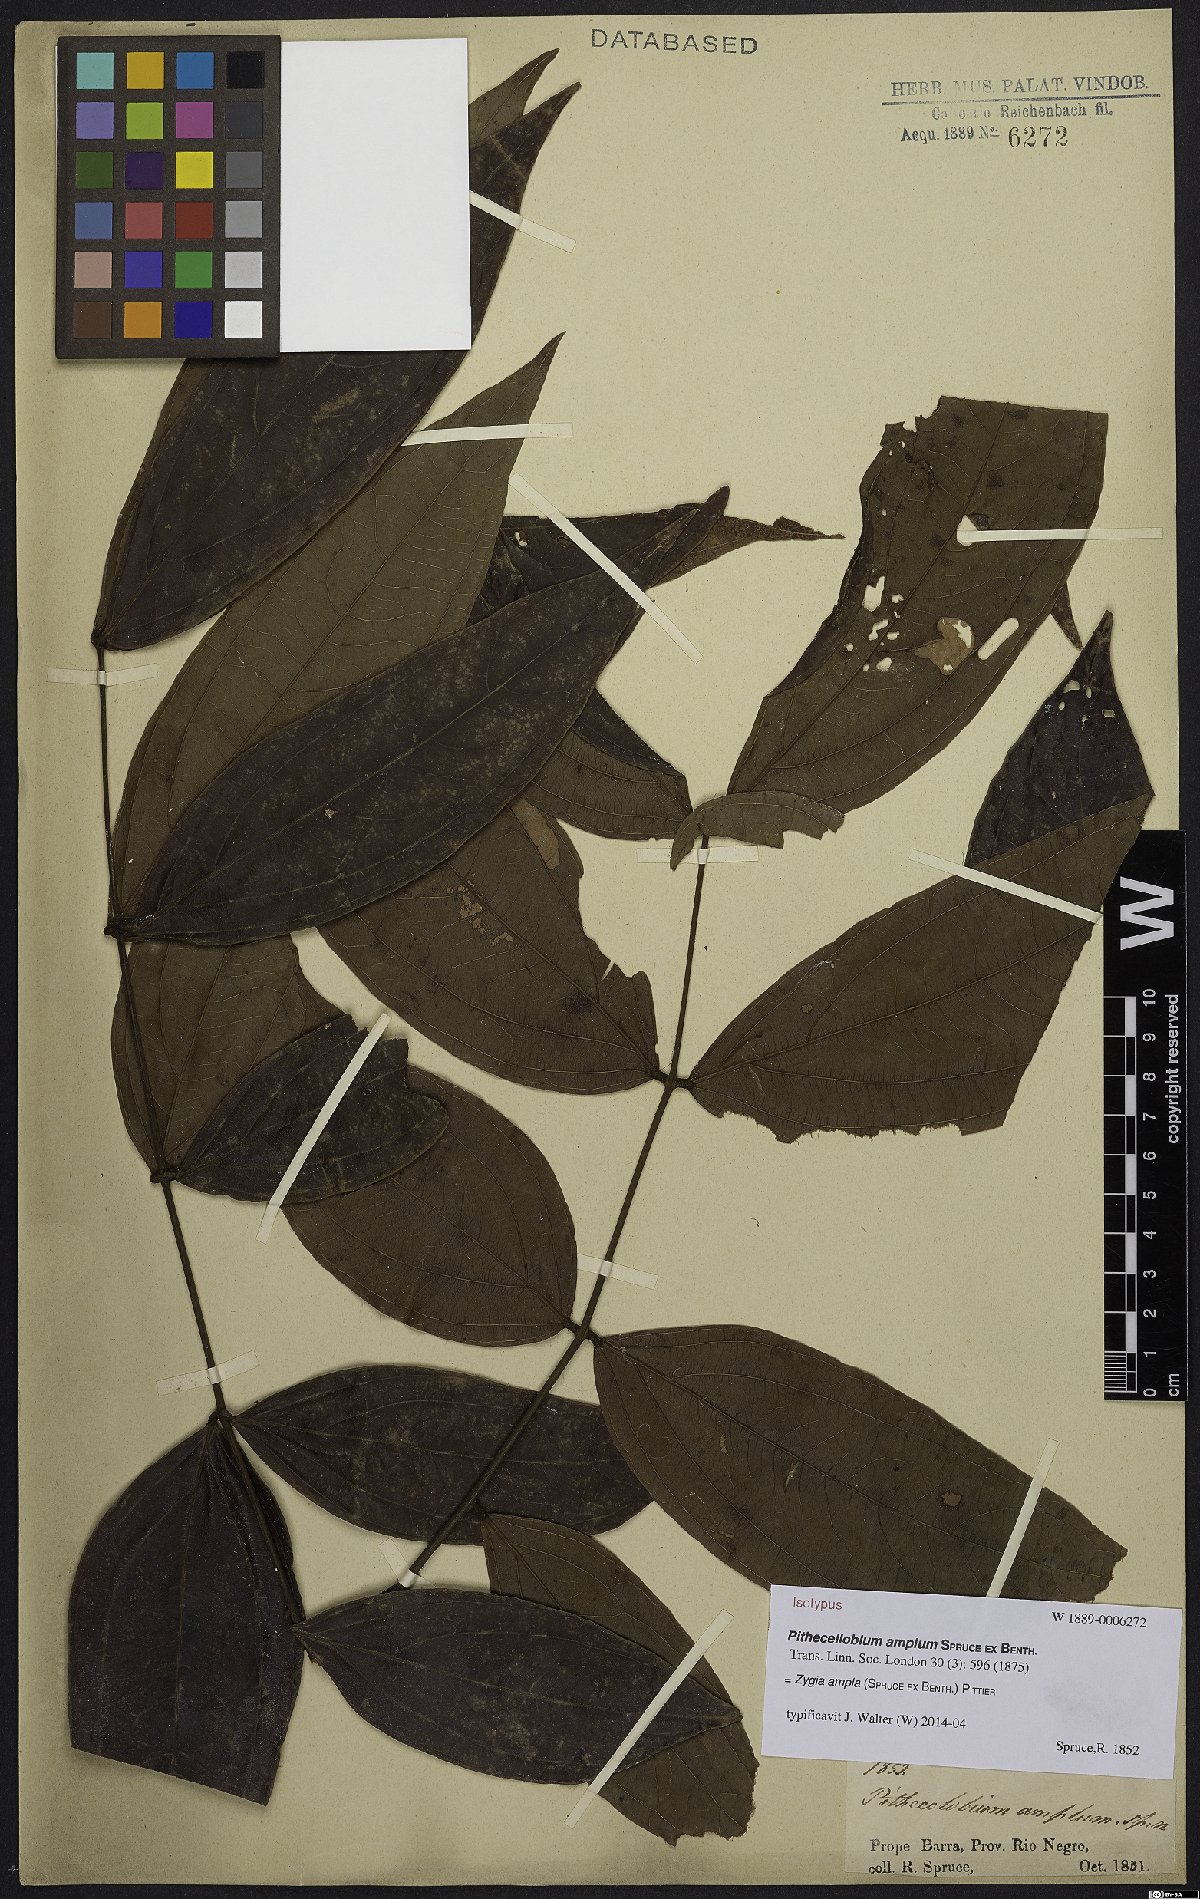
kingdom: Plantae
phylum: Tracheophyta
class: Magnoliopsida
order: Fabales
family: Fabaceae
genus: Zygia
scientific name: Zygia ampla
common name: Jarendeua de sapo
